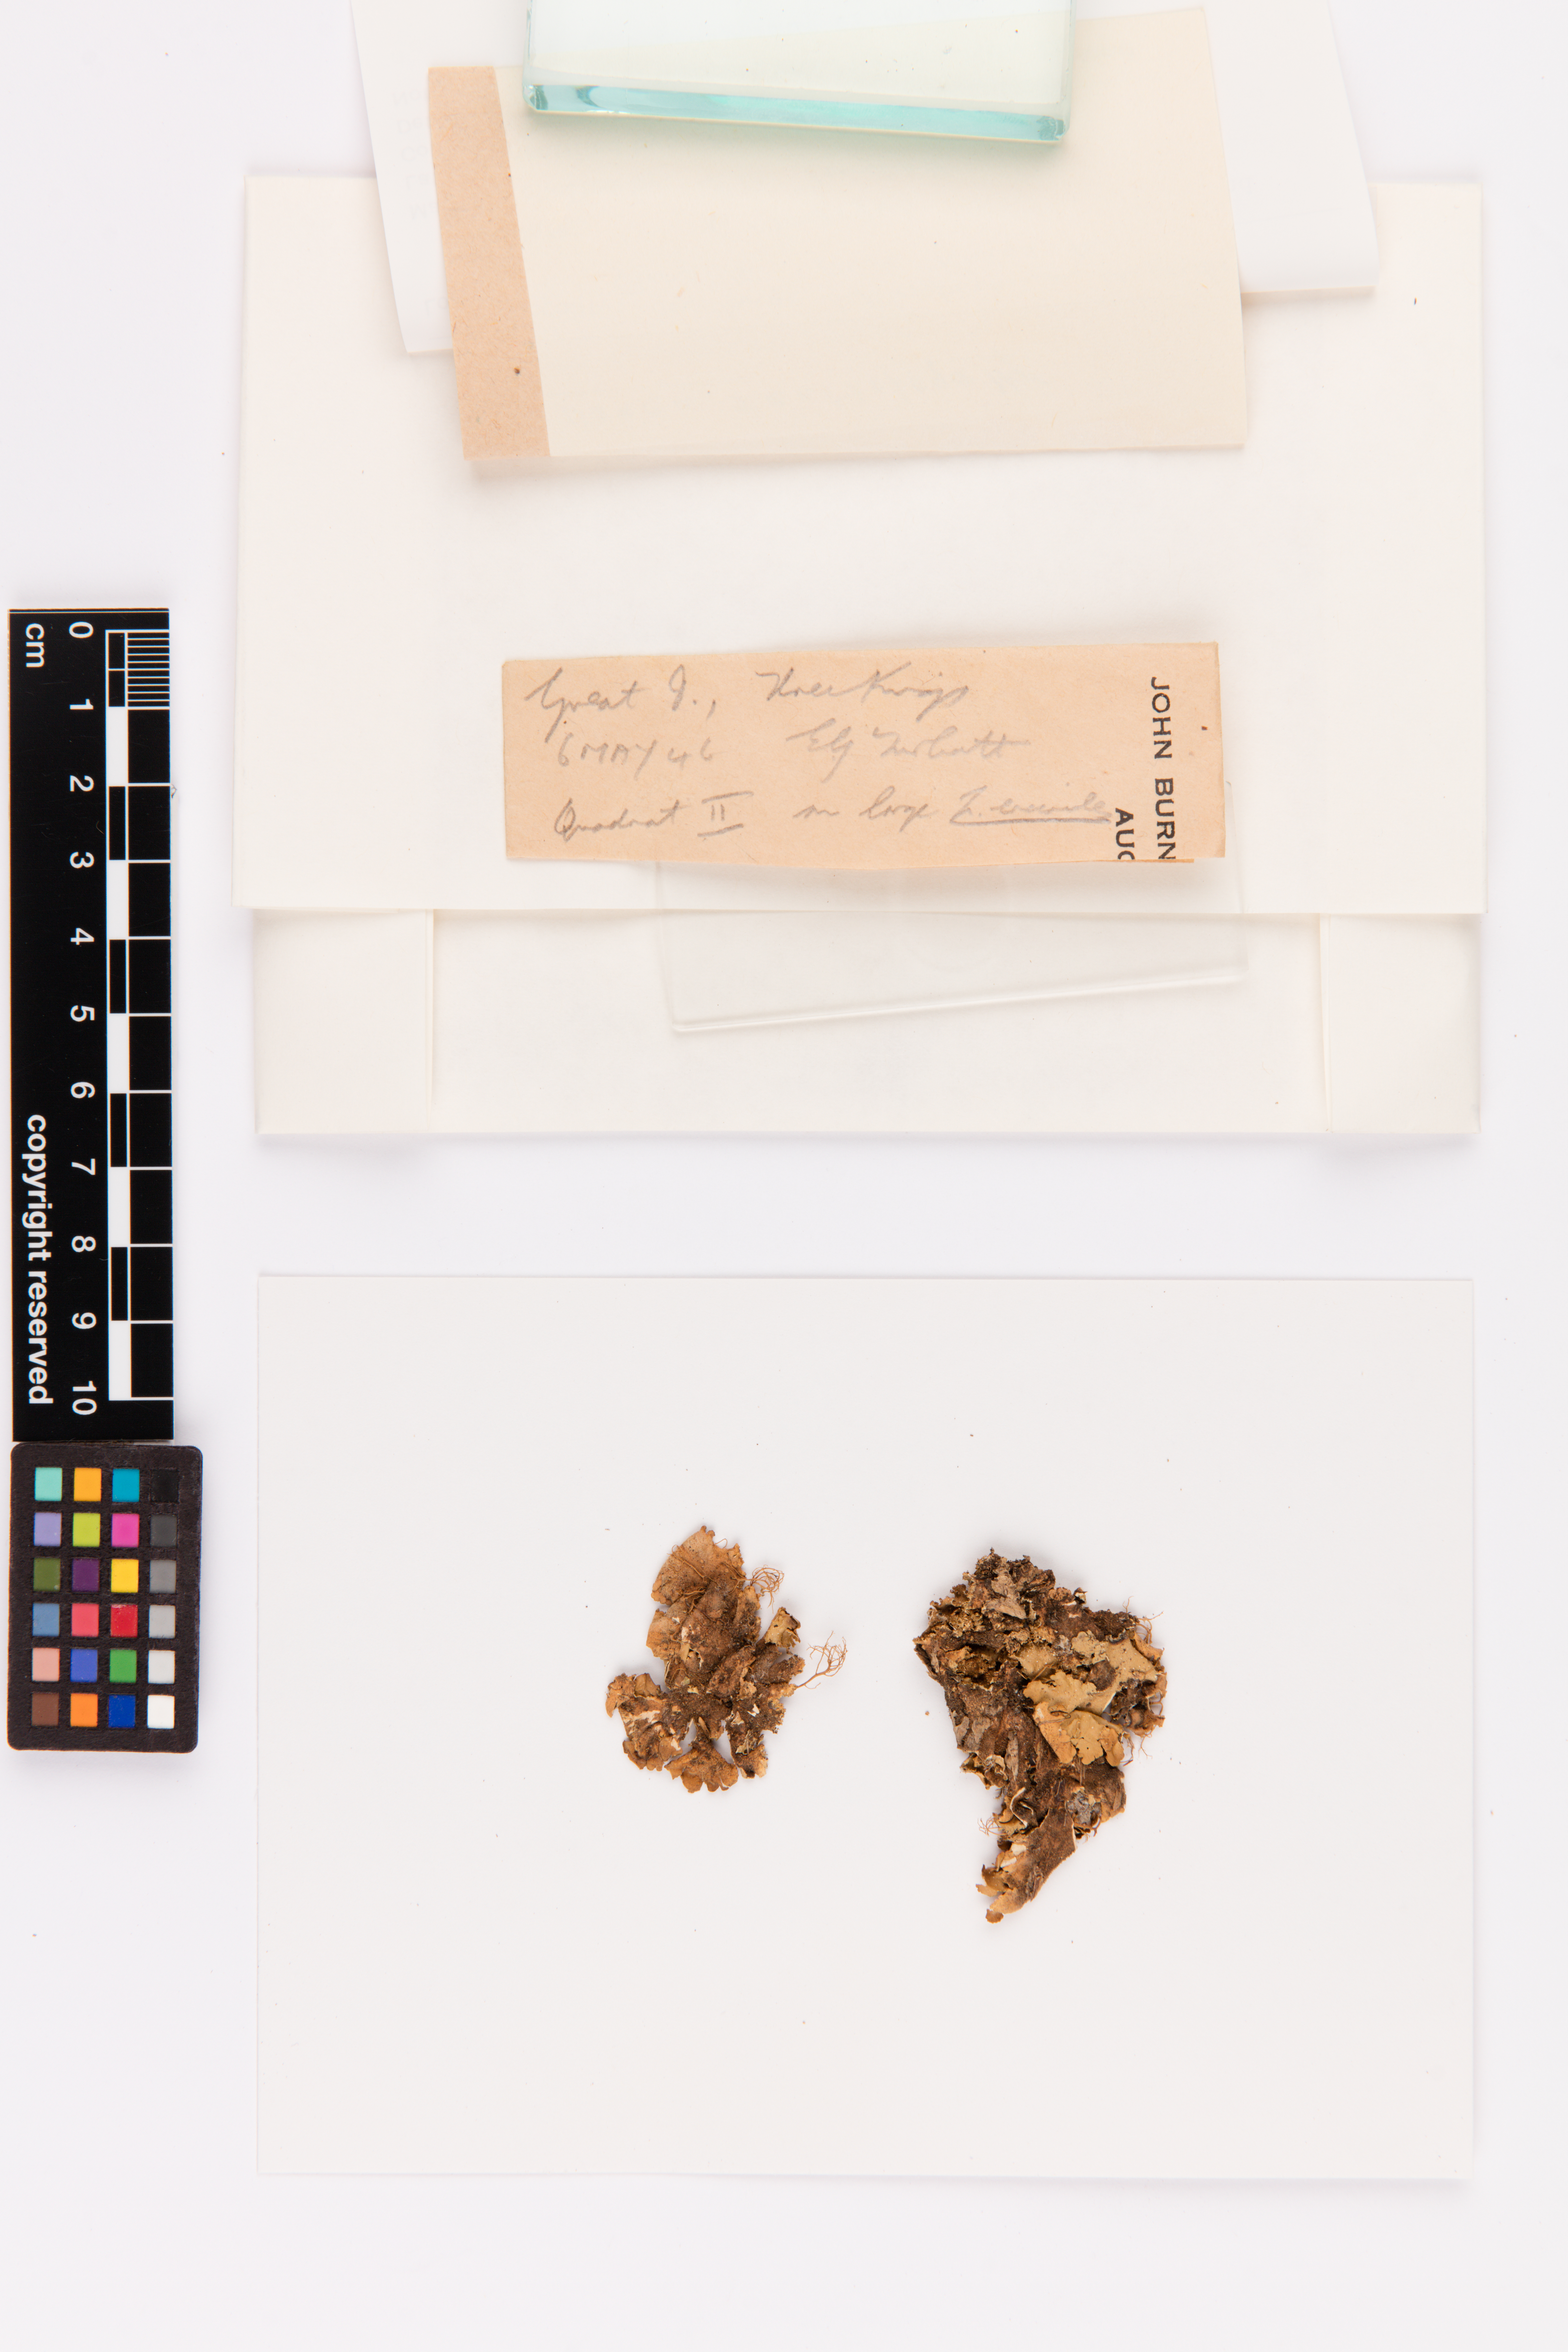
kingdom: Fungi
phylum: Ascomycota
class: Lecanoromycetes
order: Peltigerales
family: Lobariaceae
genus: Pseudocyphellaria
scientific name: Pseudocyphellaria episticta
